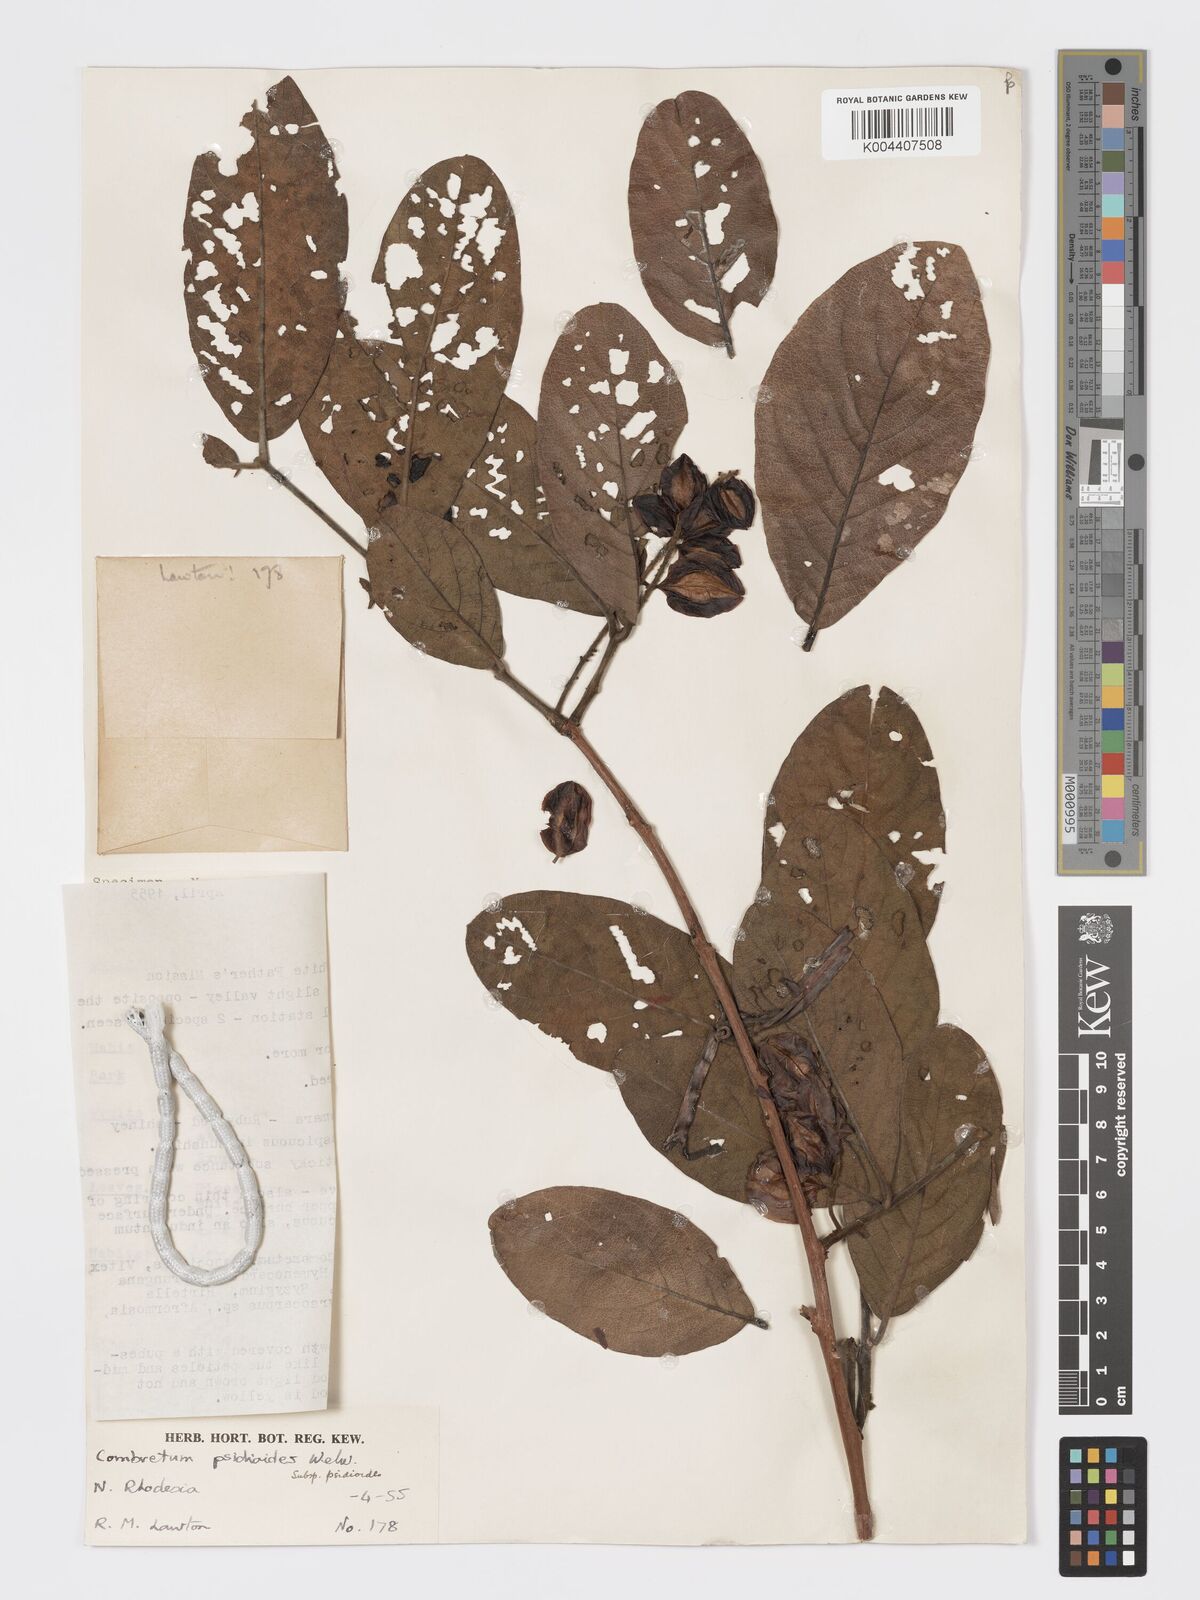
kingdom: Plantae
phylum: Tracheophyta
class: Magnoliopsida
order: Myrtales
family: Combretaceae
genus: Combretum
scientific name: Combretum psidioides
